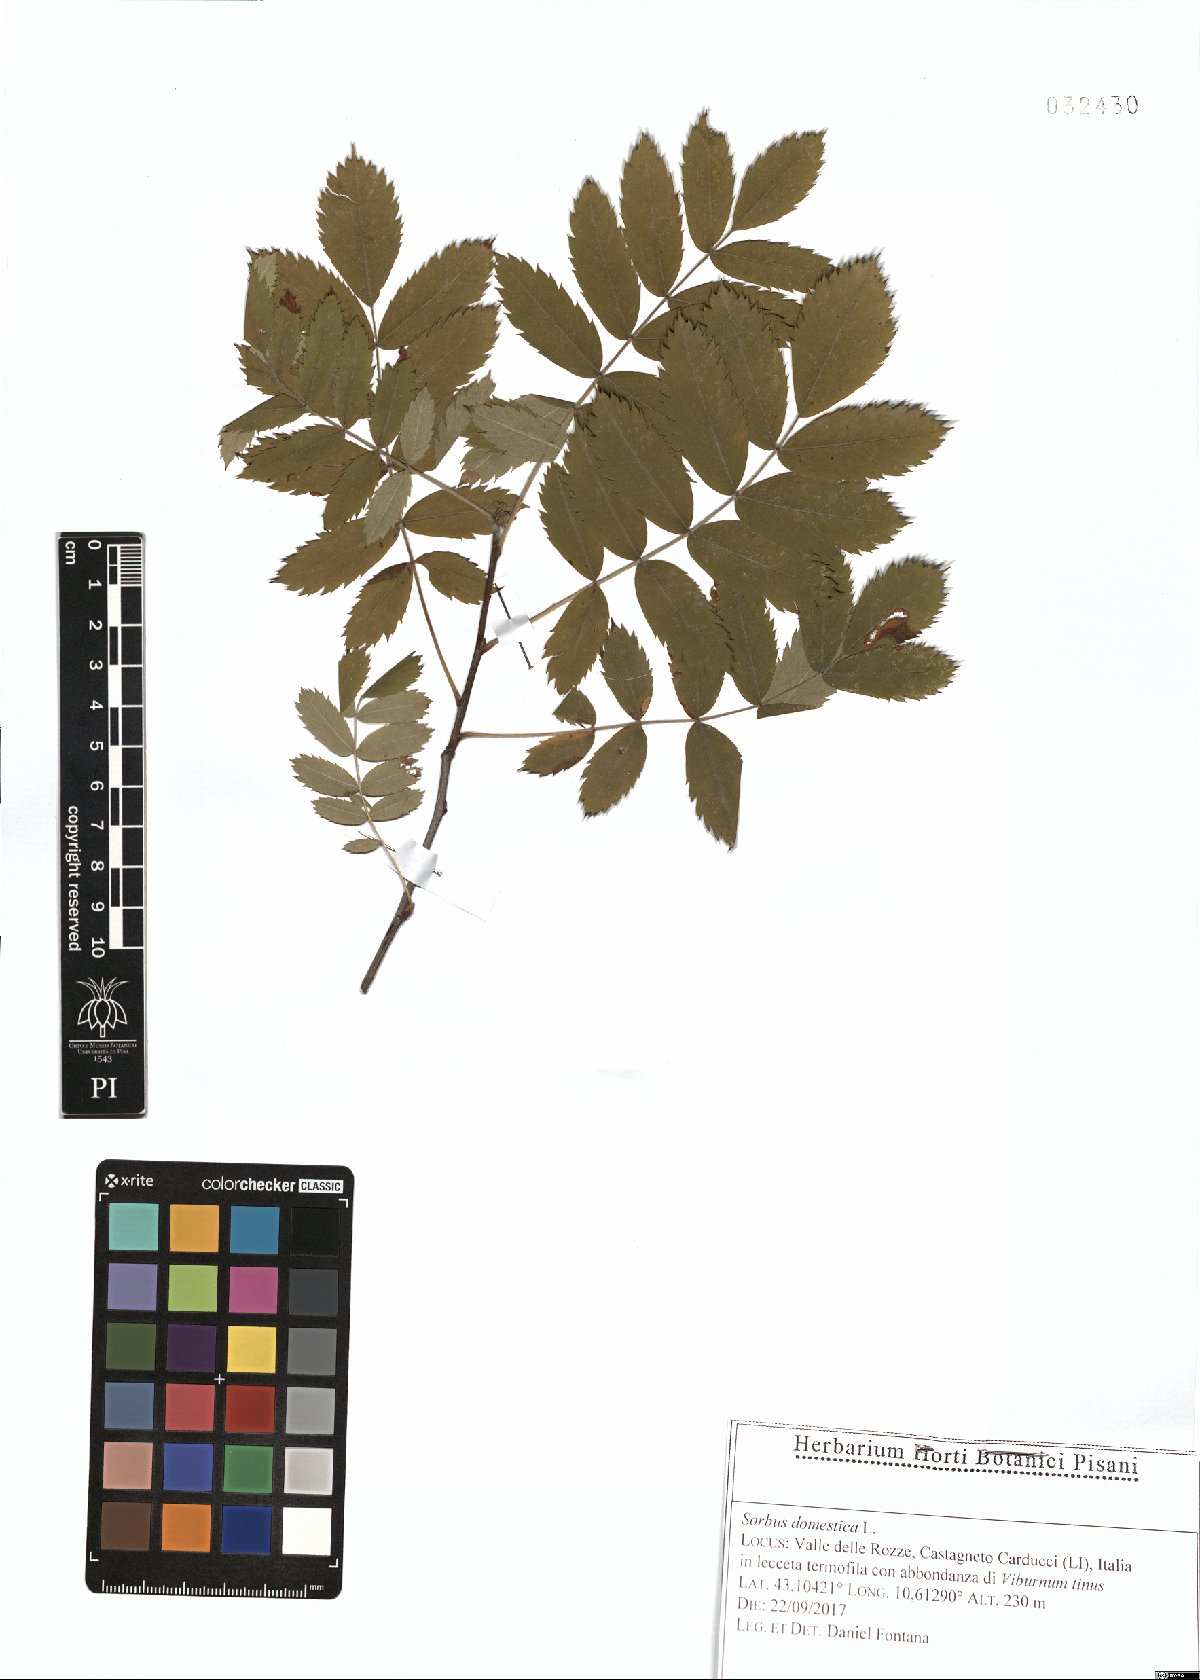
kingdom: Plantae
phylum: Tracheophyta
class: Magnoliopsida
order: Rosales
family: Rosaceae
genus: Cormus
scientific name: Cormus domestica
